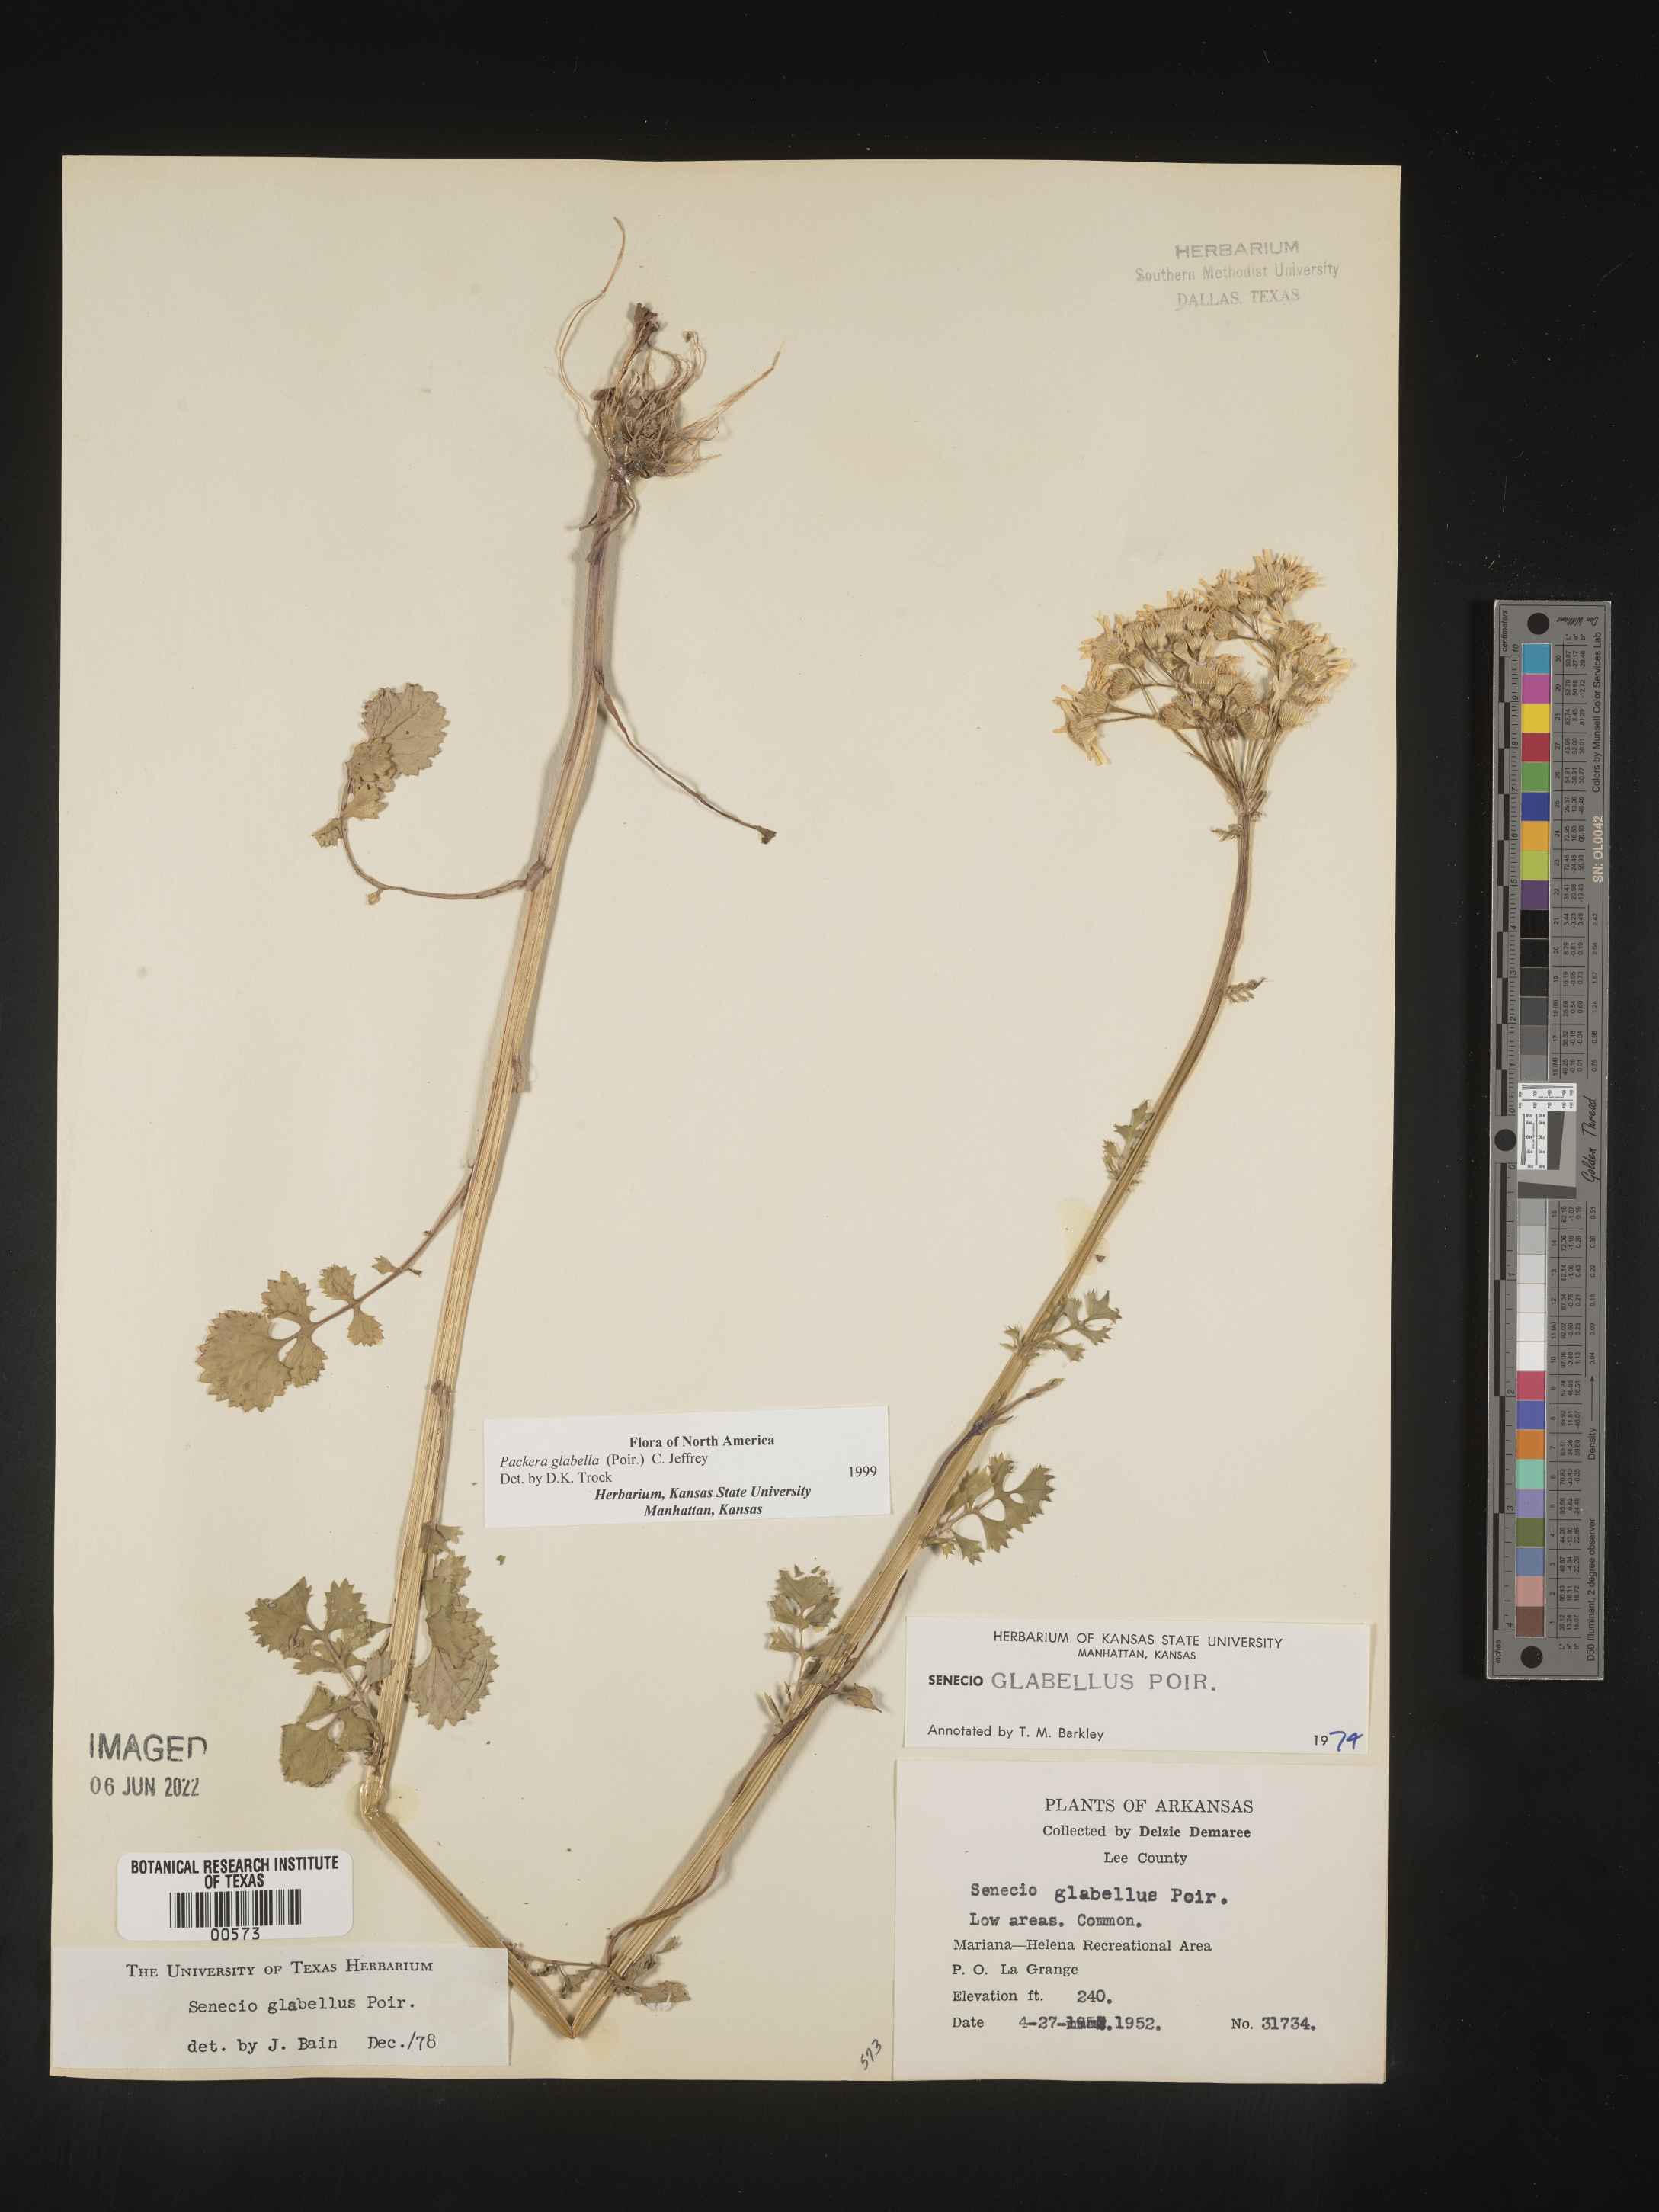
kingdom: Plantae
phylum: Tracheophyta
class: Magnoliopsida
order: Asterales
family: Asteraceae
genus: Packera
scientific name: Packera glabella
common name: Butterweed
